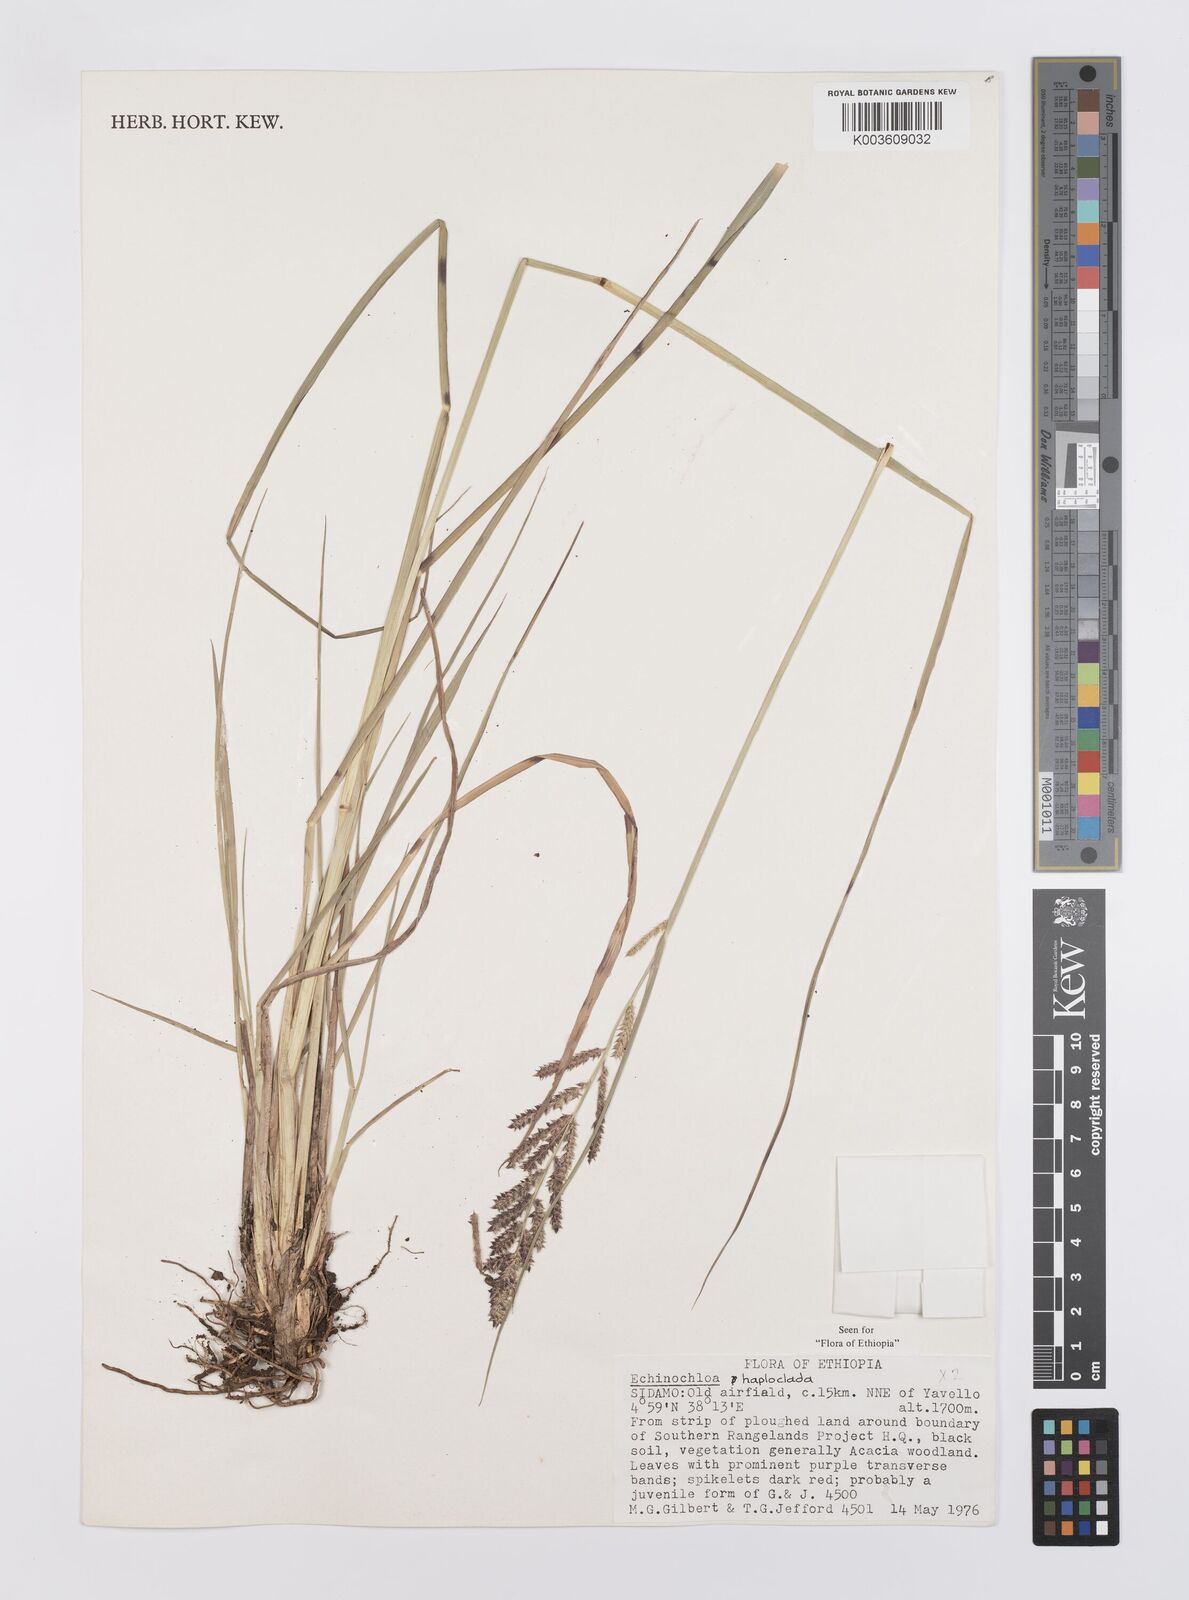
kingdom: Plantae
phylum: Tracheophyta
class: Liliopsida
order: Poales
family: Poaceae
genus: Echinochloa
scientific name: Echinochloa haploclada
